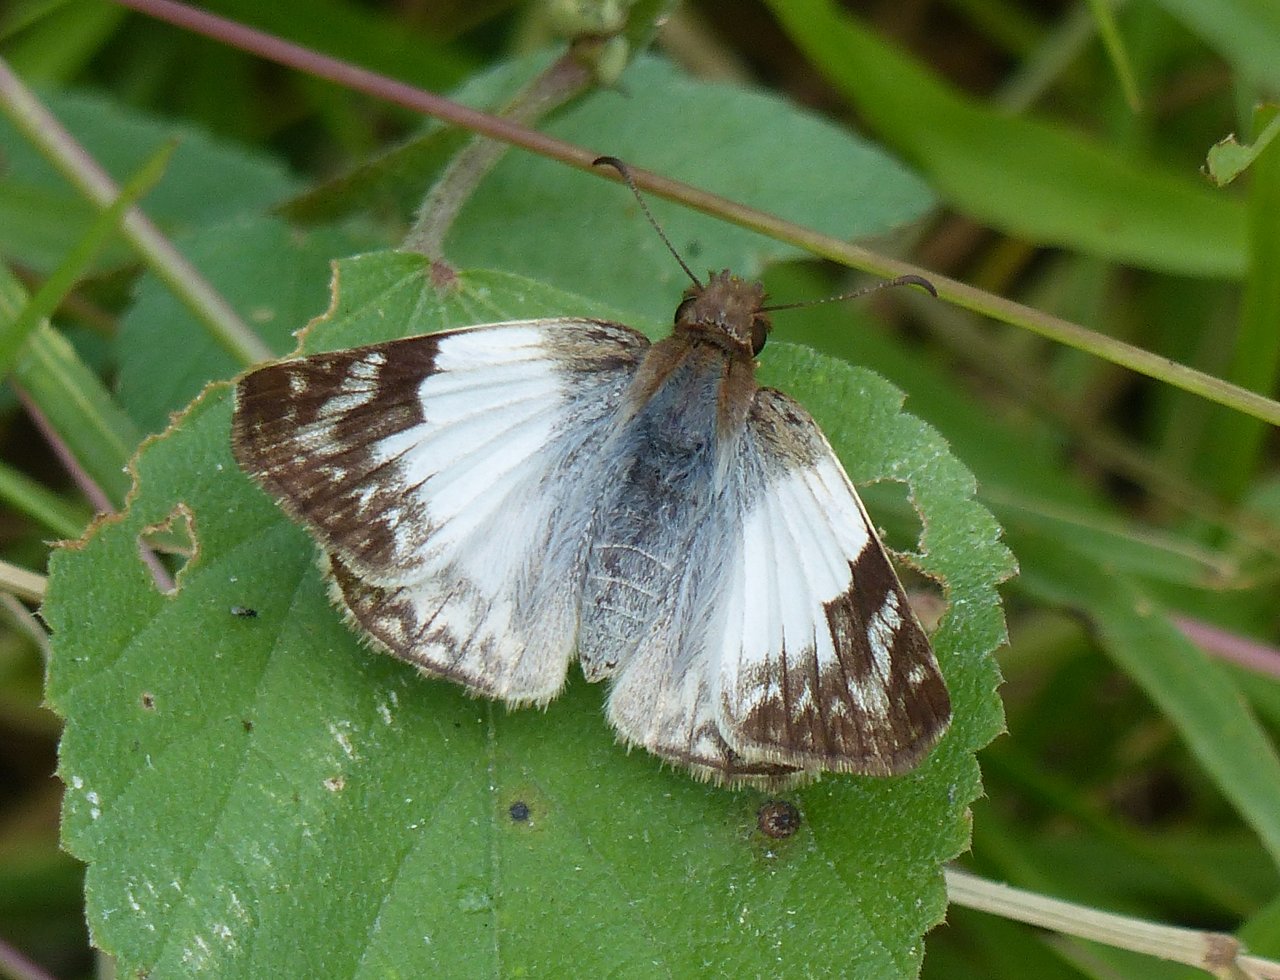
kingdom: Animalia
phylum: Arthropoda
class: Insecta
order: Lepidoptera
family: Hesperiidae
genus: Heliopetes
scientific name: Heliopetes laviana
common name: Laviana White-Skipper
